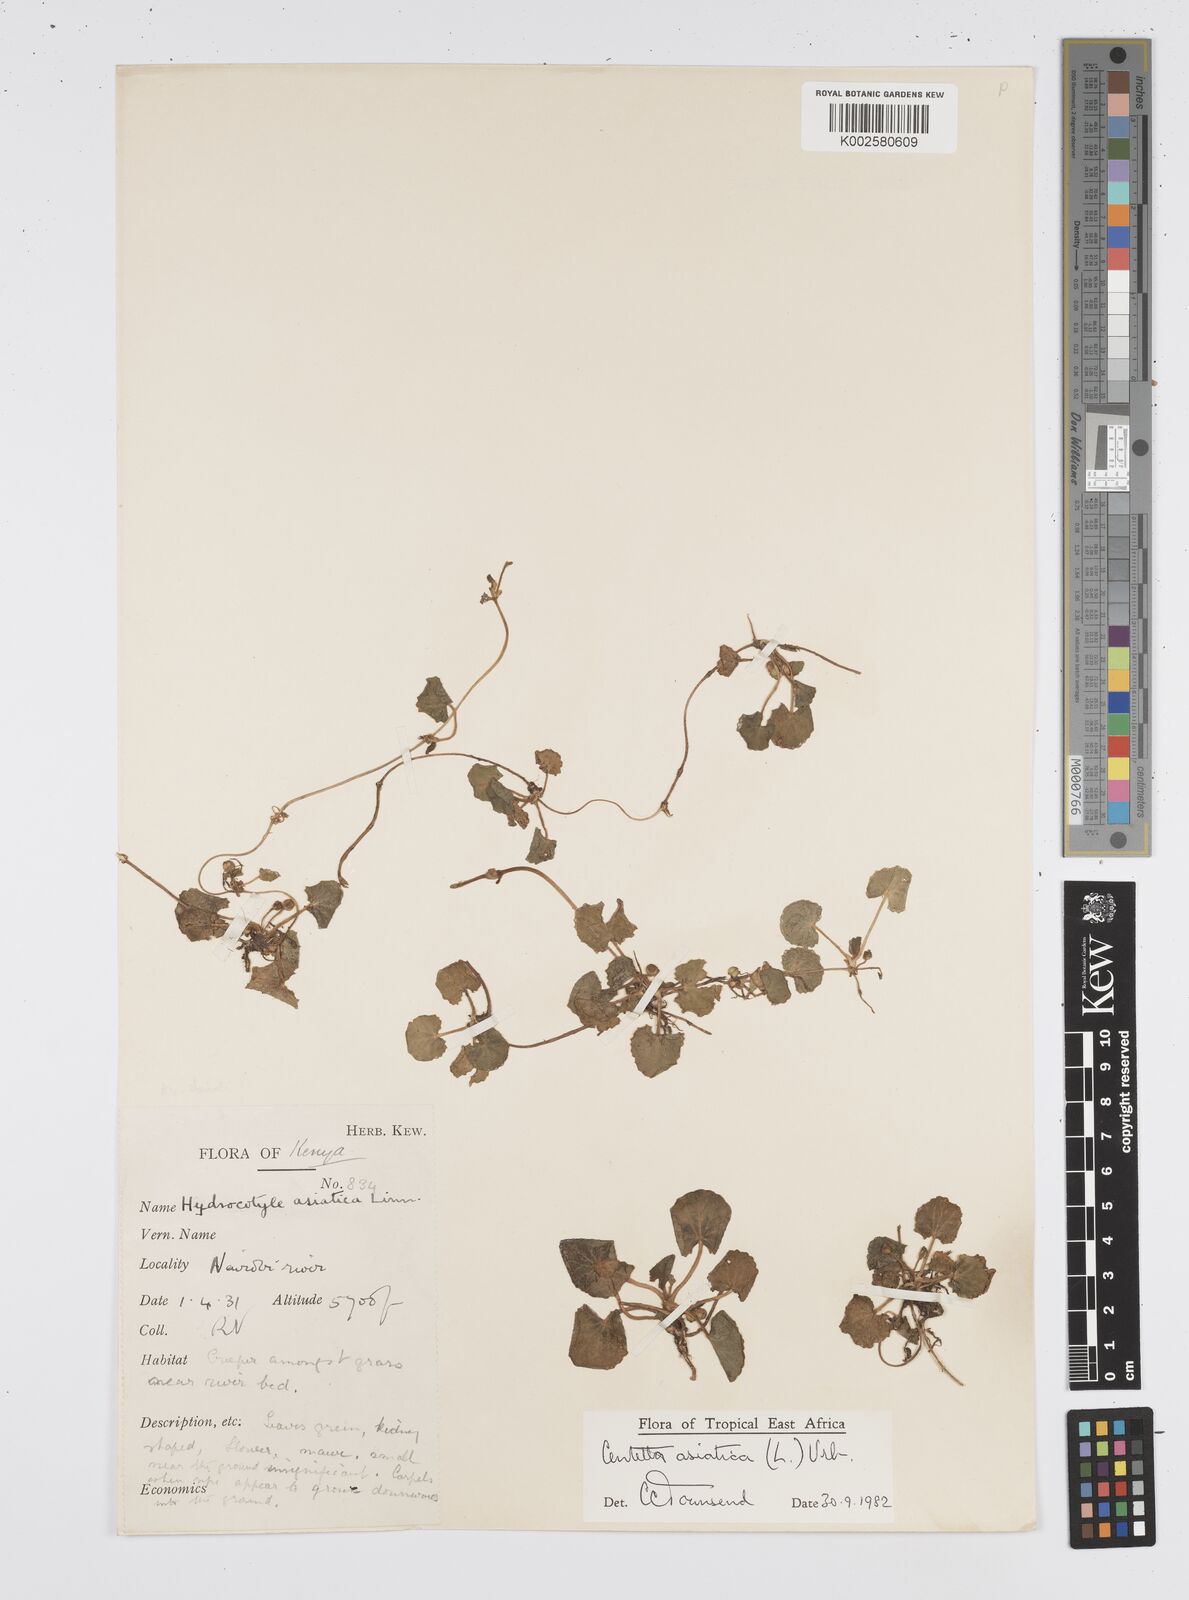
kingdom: Plantae
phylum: Tracheophyta
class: Magnoliopsida
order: Apiales
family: Apiaceae
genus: Centella
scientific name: Centella asiatica
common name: Spadeleaf
